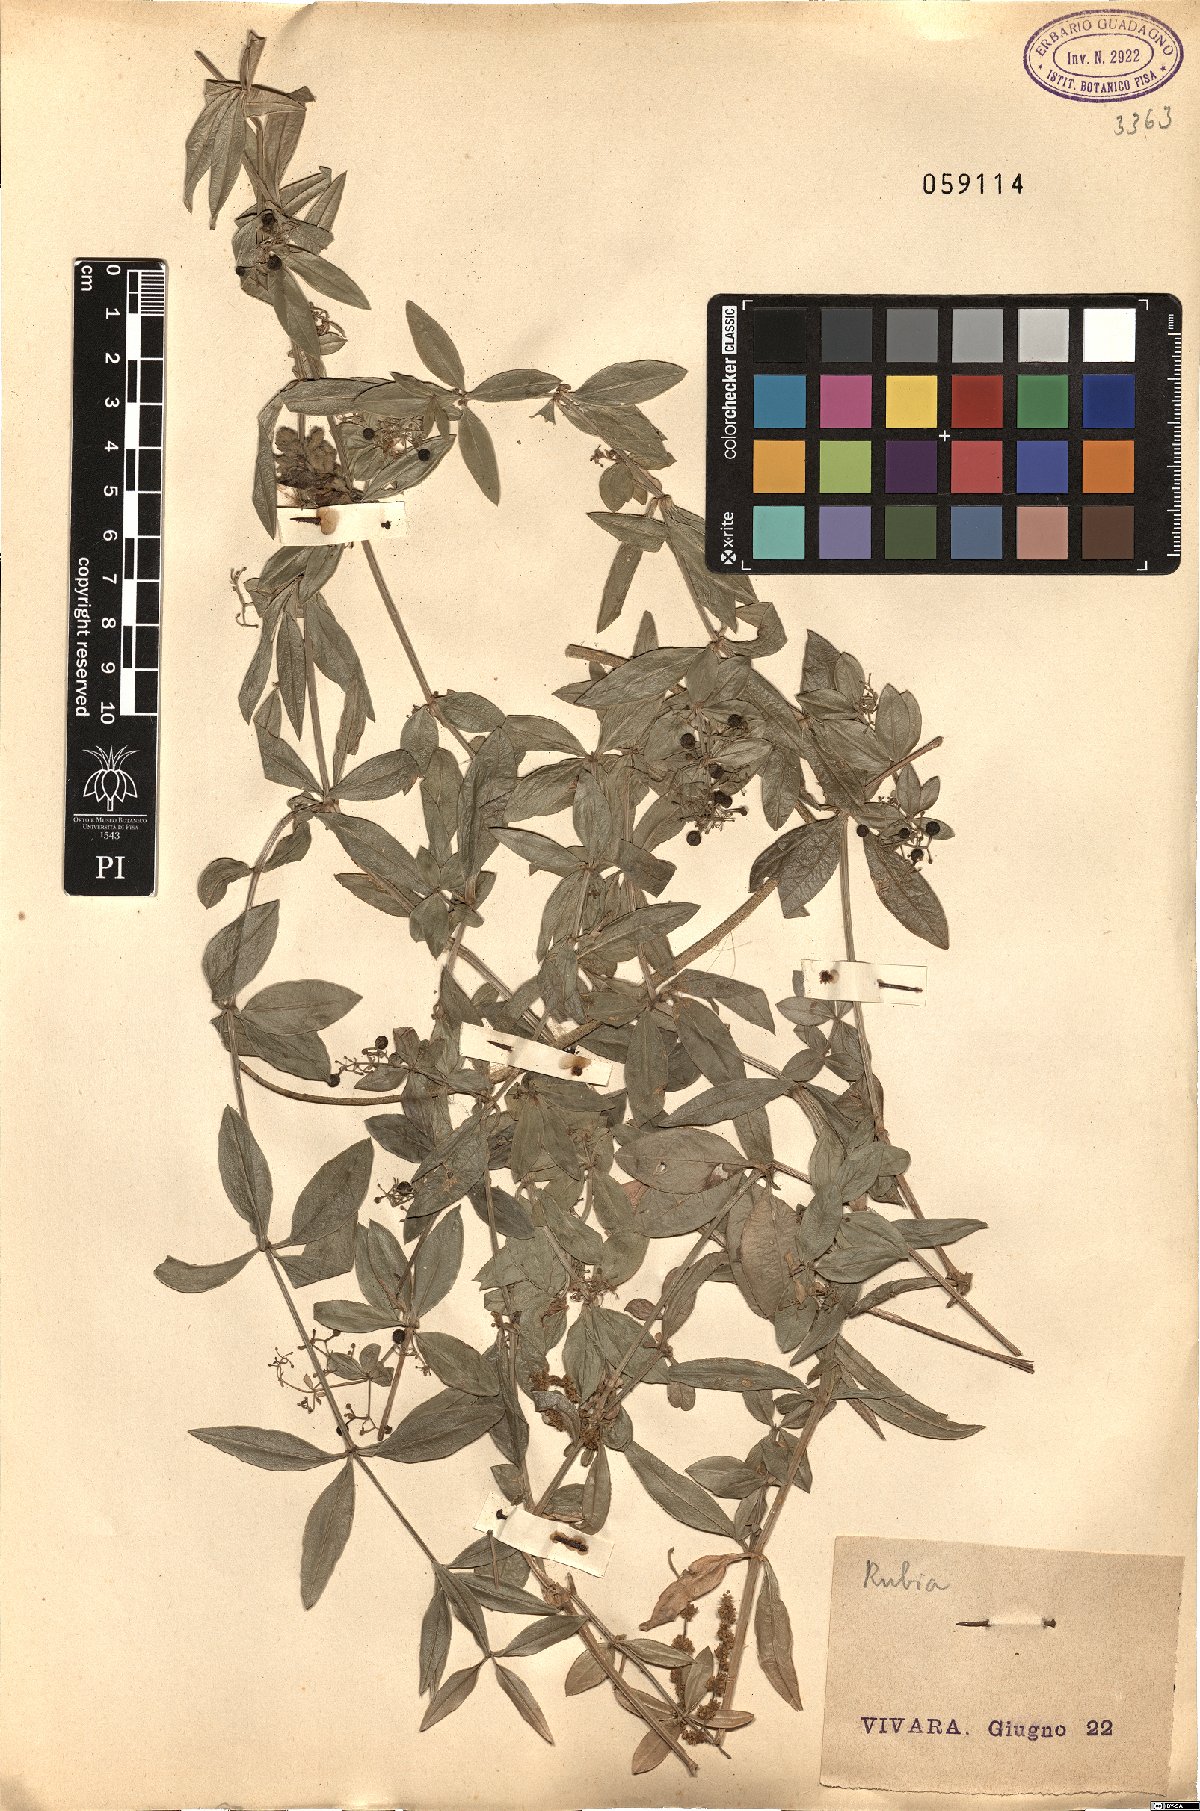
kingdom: Plantae
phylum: Tracheophyta
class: Magnoliopsida
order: Gentianales
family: Rubiaceae
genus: Rubia
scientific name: Rubia
